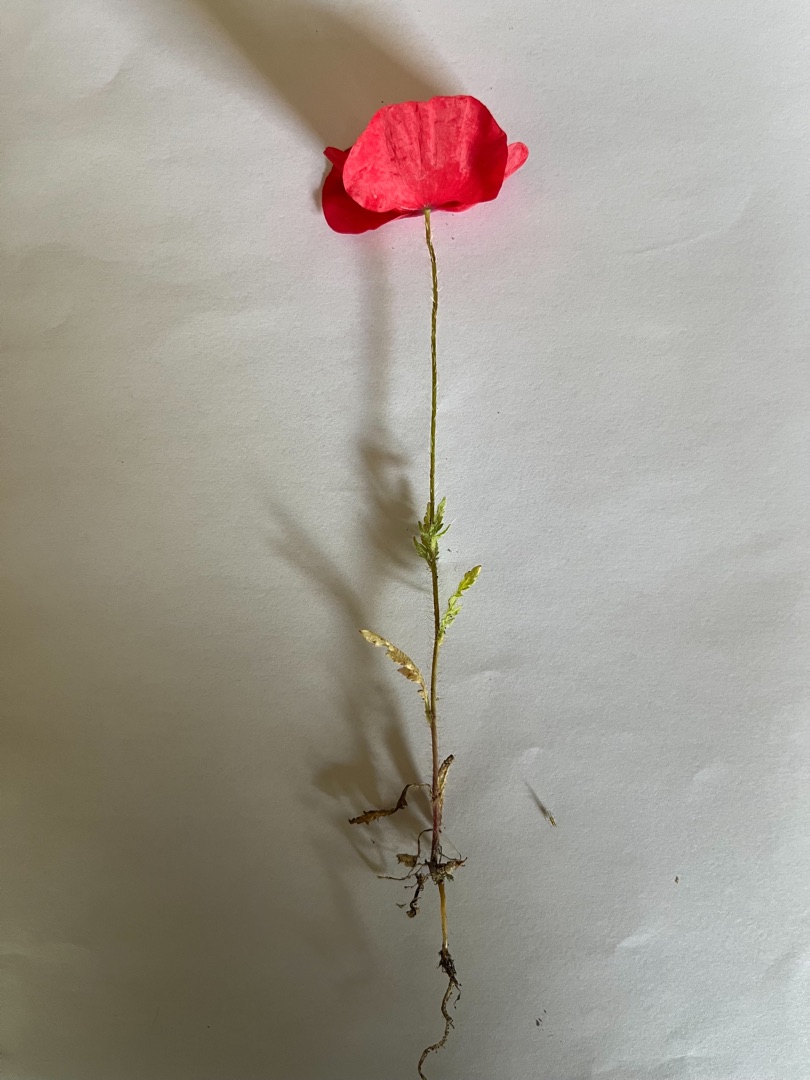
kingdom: Plantae
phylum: Tracheophyta
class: Magnoliopsida
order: Ranunculales
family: Papaveraceae
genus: Papaver
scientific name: Papaver
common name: Valmueslægten
